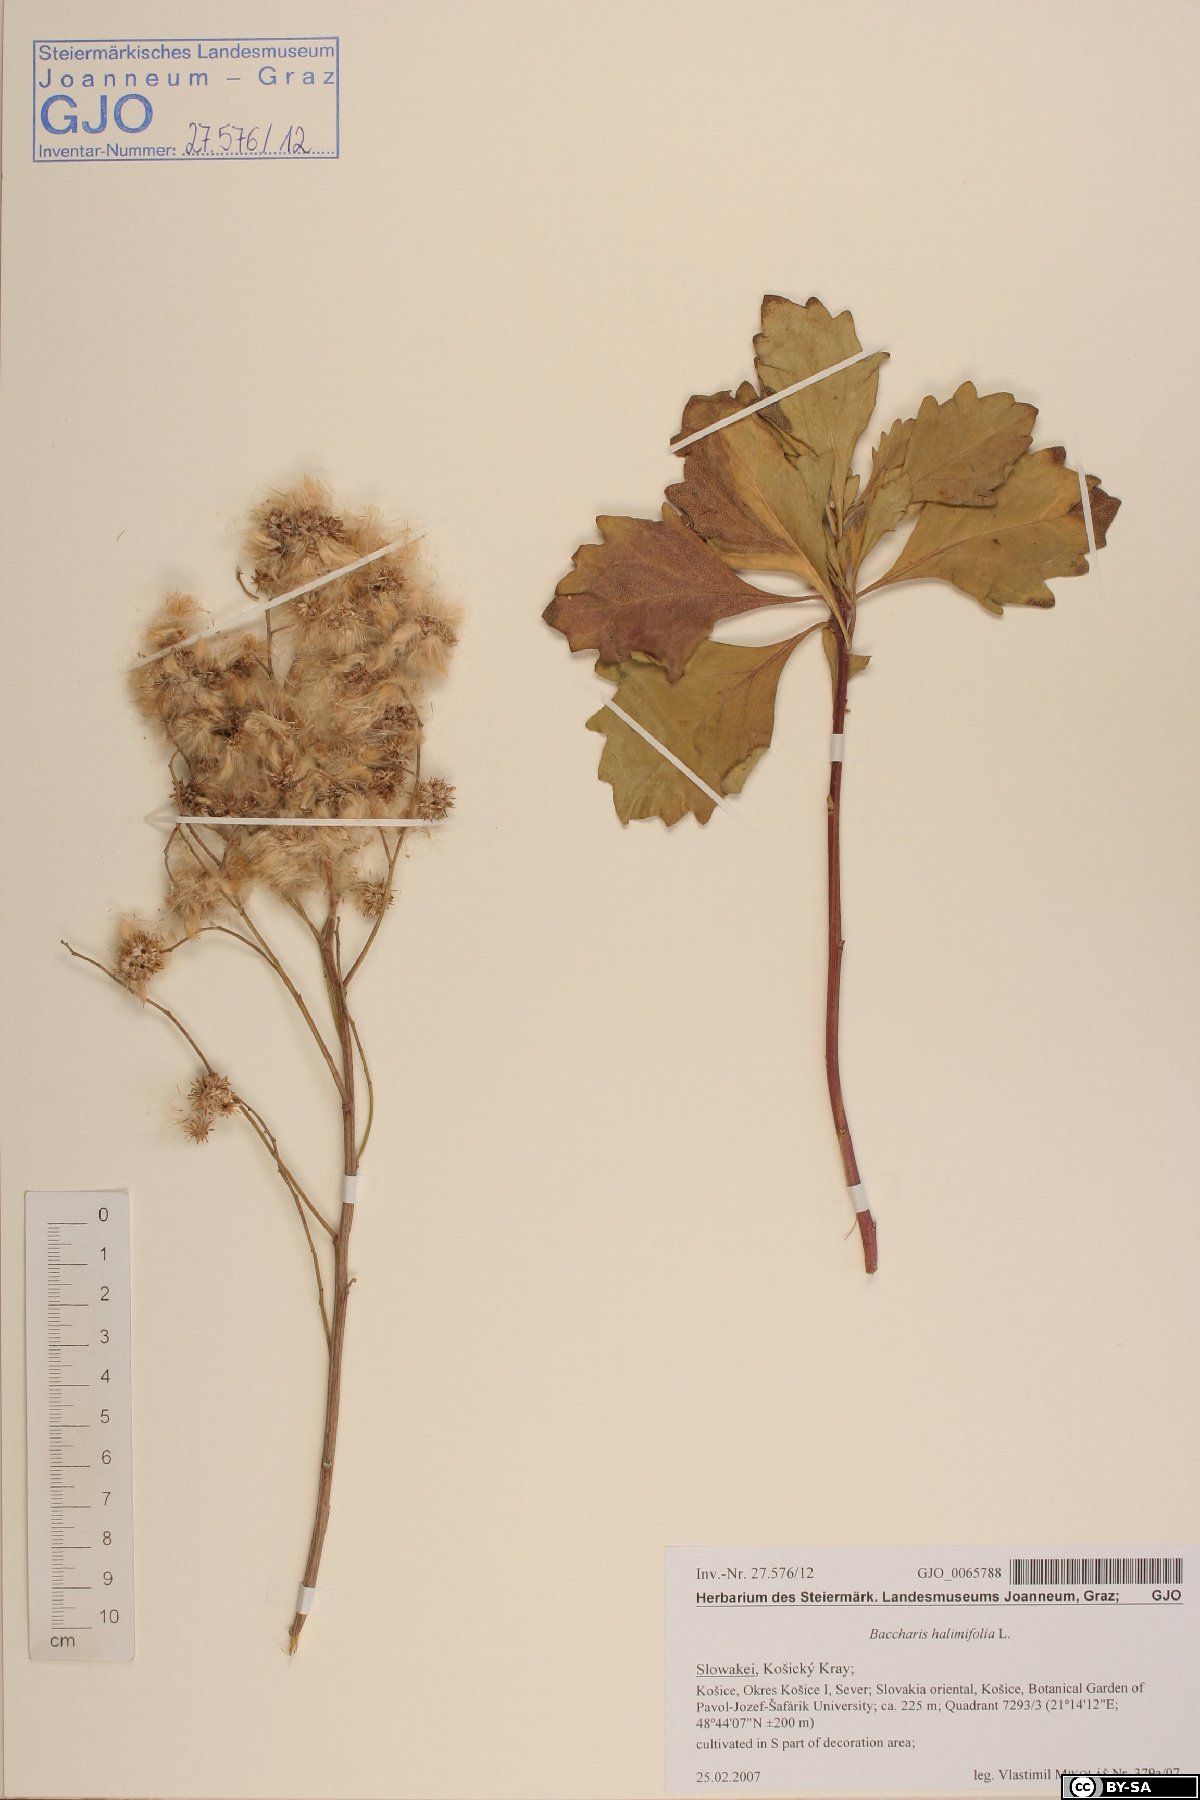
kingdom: Plantae
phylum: Tracheophyta
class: Magnoliopsida
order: Asterales
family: Asteraceae
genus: Baccharis
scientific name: Baccharis halimifolia
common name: Eastern baccharis
